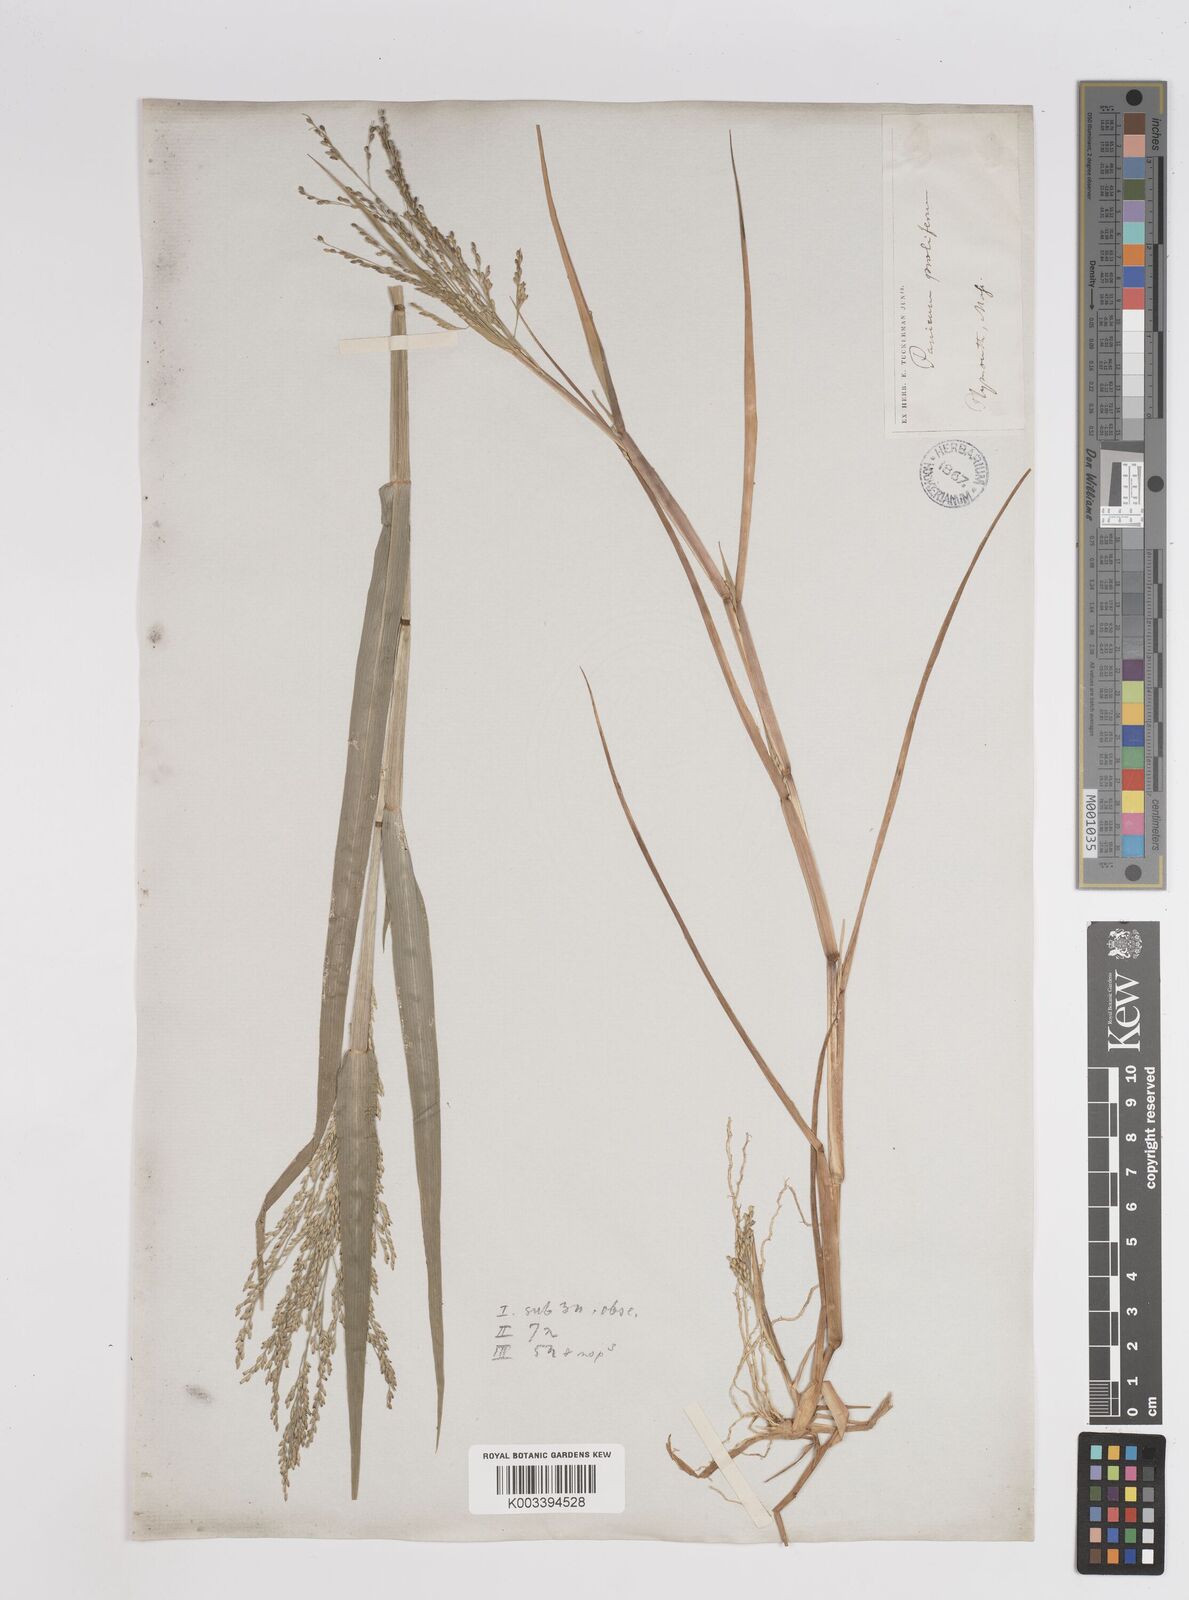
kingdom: Plantae
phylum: Tracheophyta
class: Liliopsida
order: Poales
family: Poaceae
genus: Panicum
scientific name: Panicum dichotomiflorum
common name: Autumn millet
